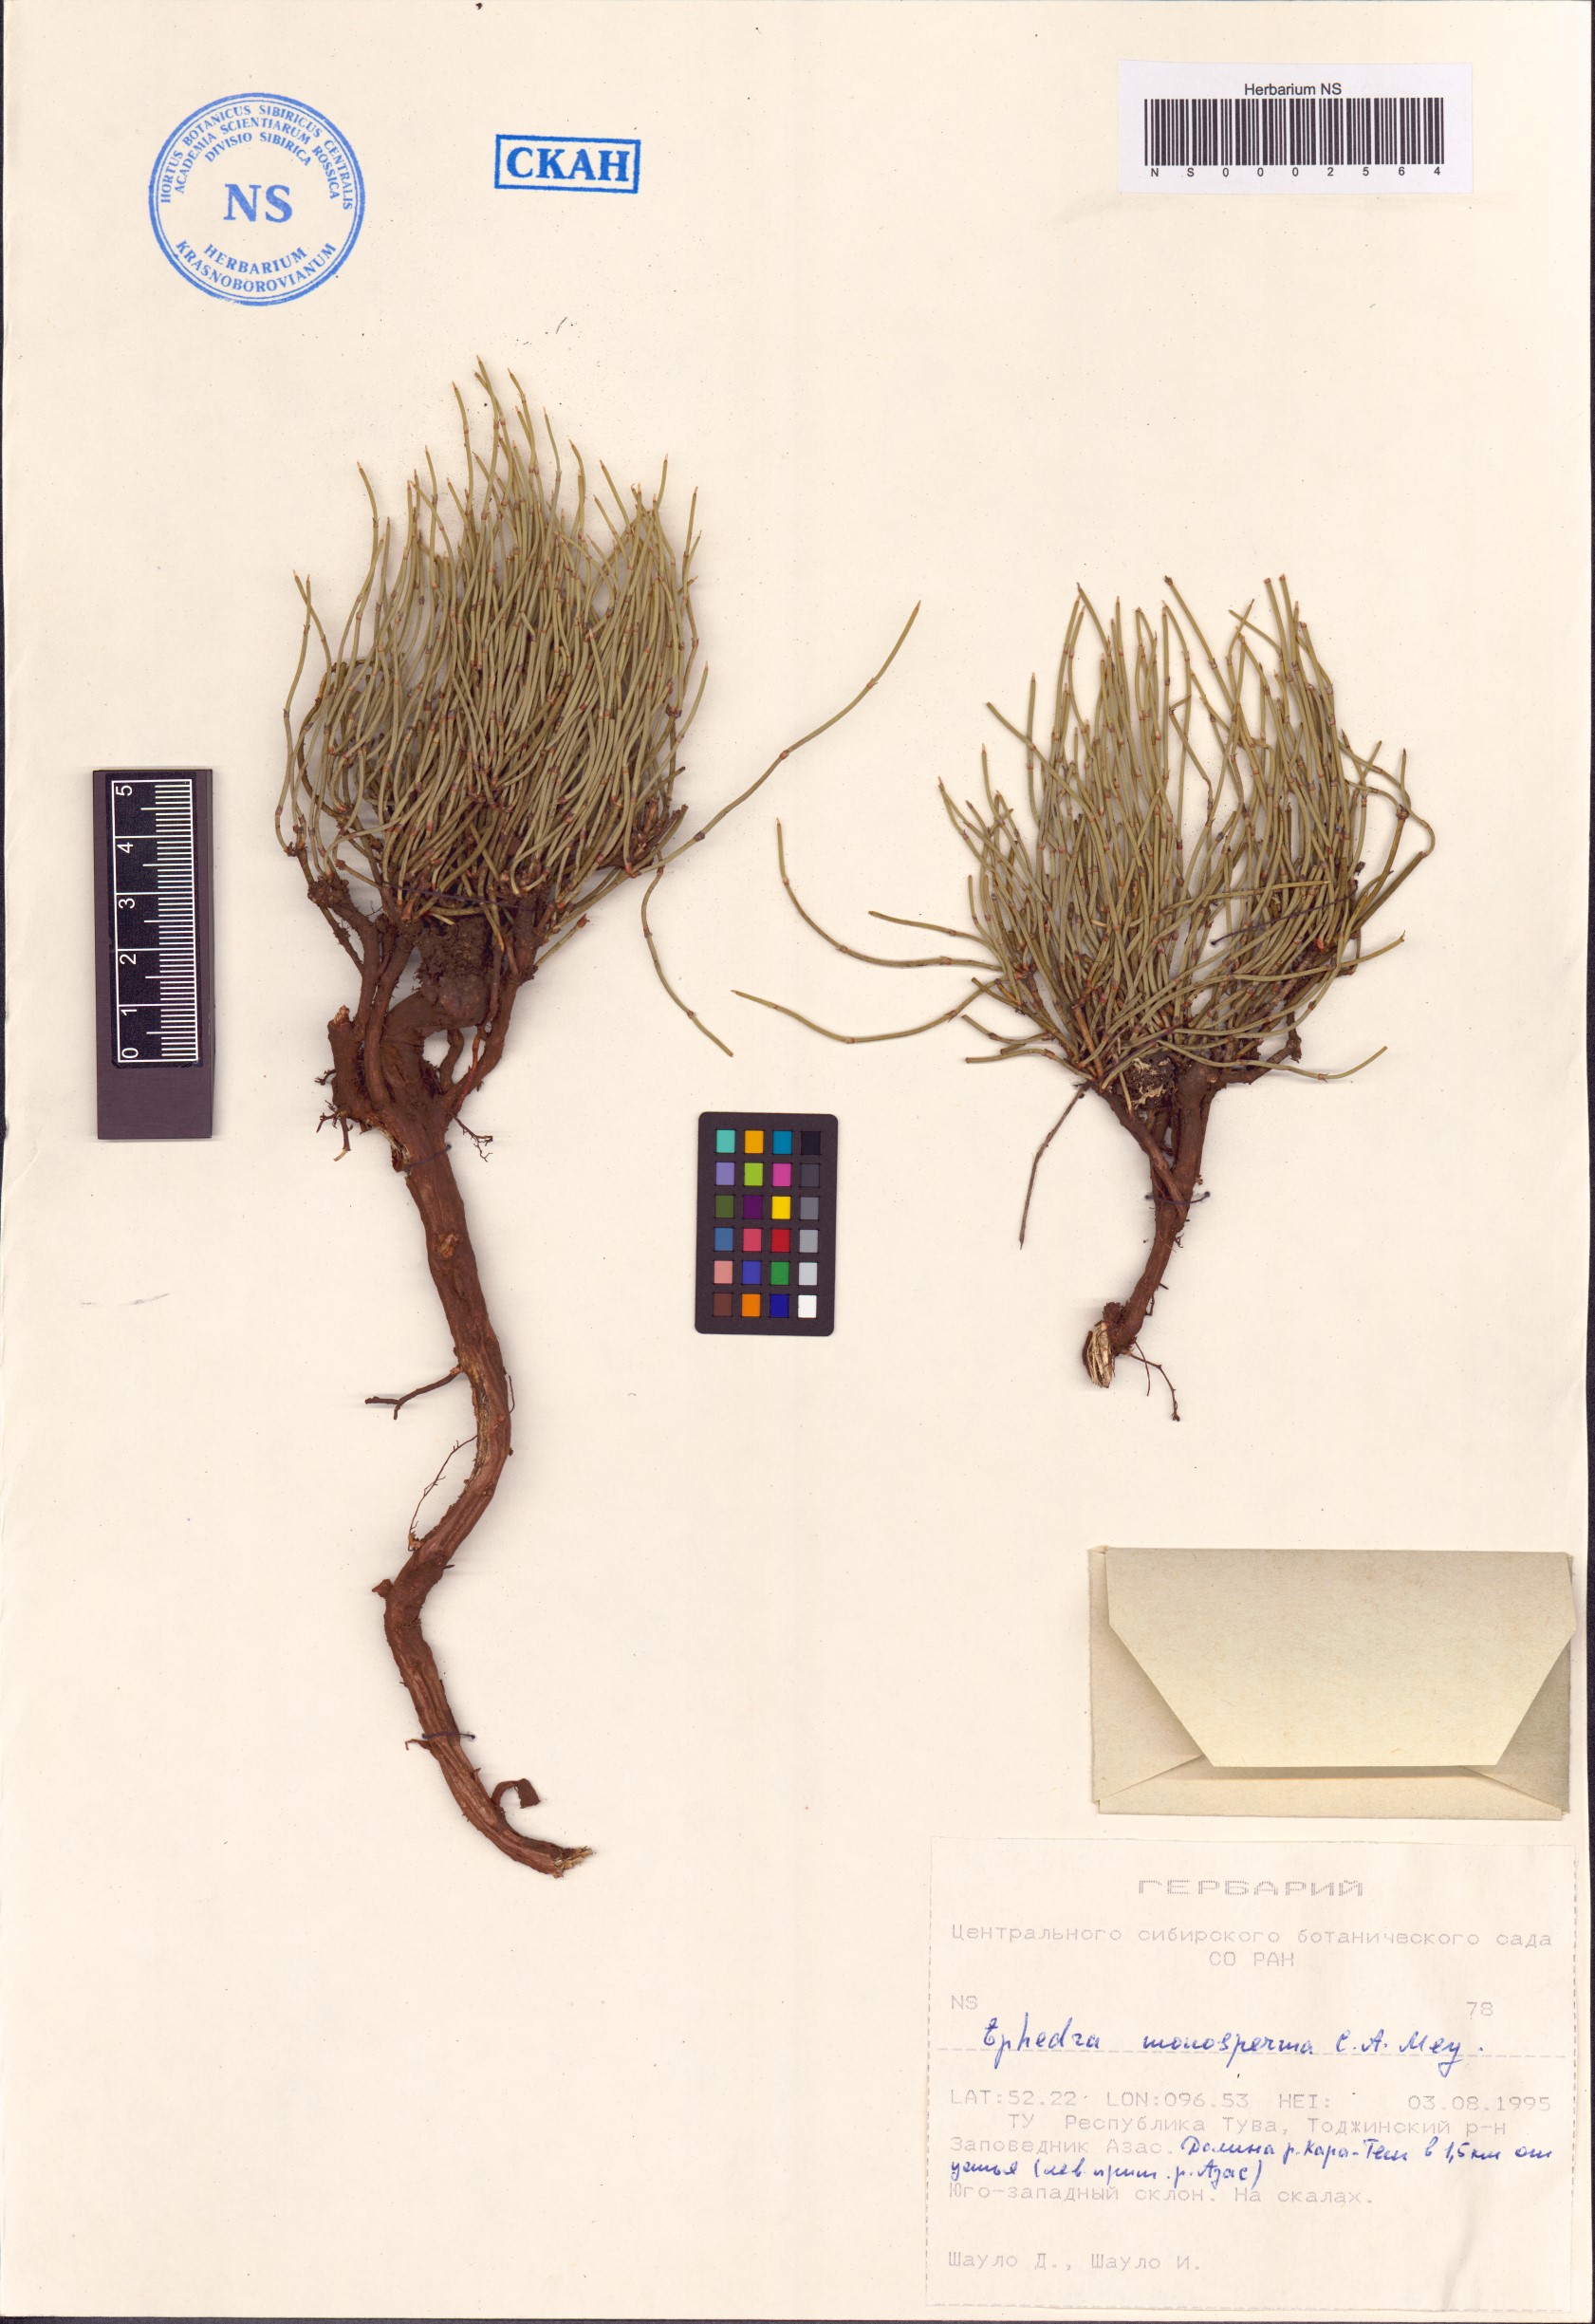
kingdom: Plantae
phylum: Tracheophyta
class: Gnetopsida
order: Ephedrales
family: Ephedraceae
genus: Ephedra
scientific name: Ephedra monosperma
